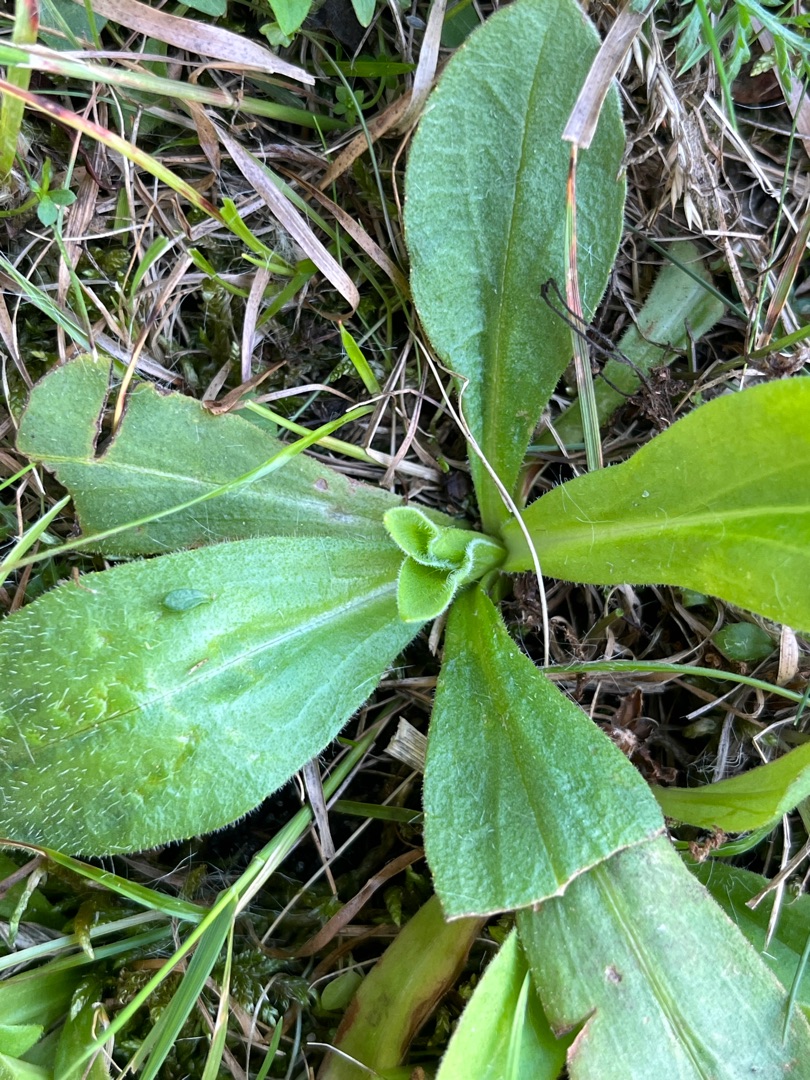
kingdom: Plantae
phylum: Tracheophyta
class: Magnoliopsida
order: Asterales
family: Asteraceae
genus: Arnica
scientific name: Arnica montana
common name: Guldblomme
